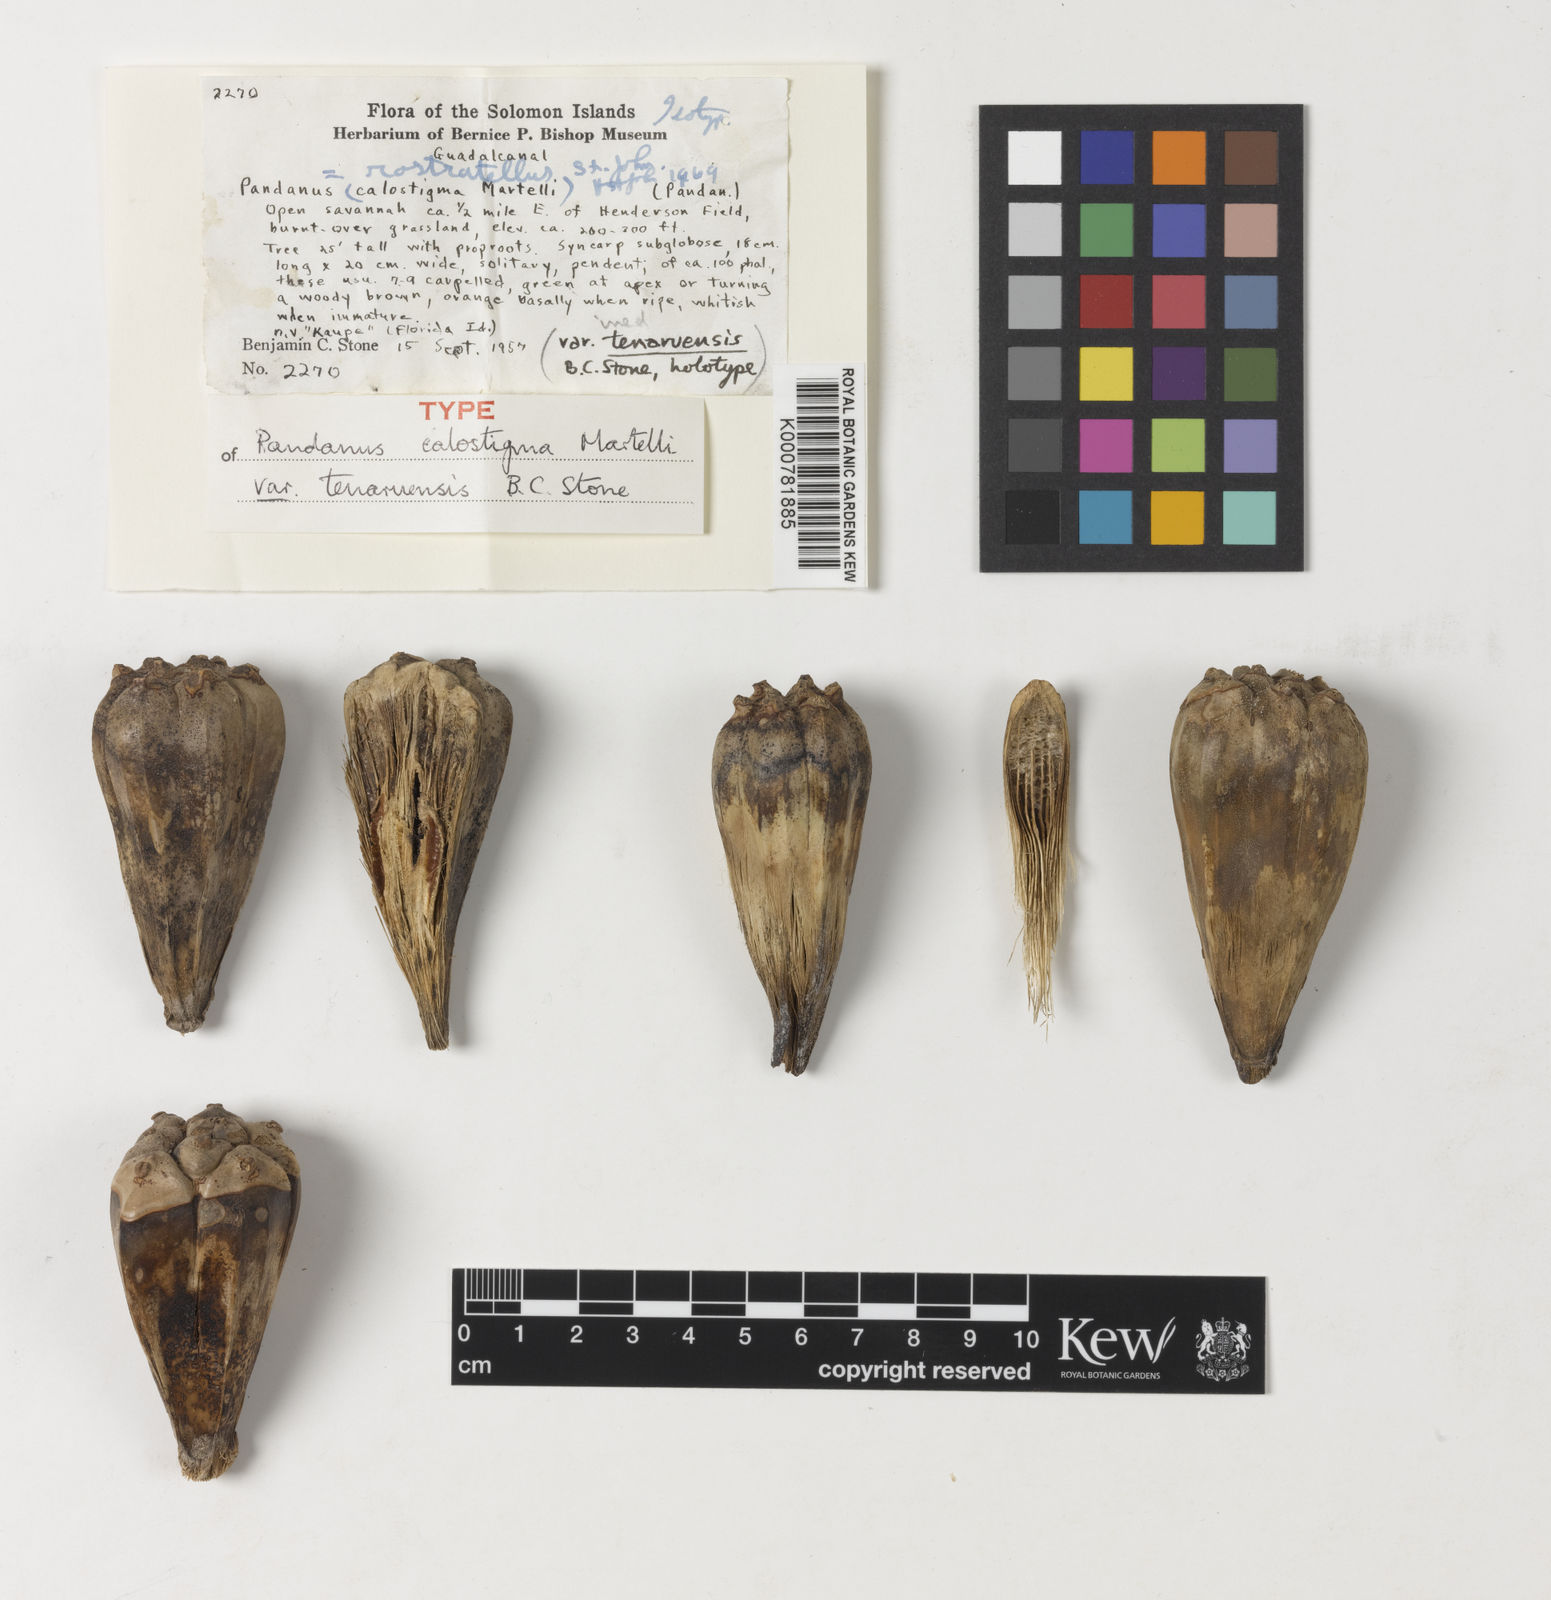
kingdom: Plantae
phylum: Tracheophyta
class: Liliopsida
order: Pandanales
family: Pandanaceae
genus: Pandanus
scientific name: Pandanus calostigma
